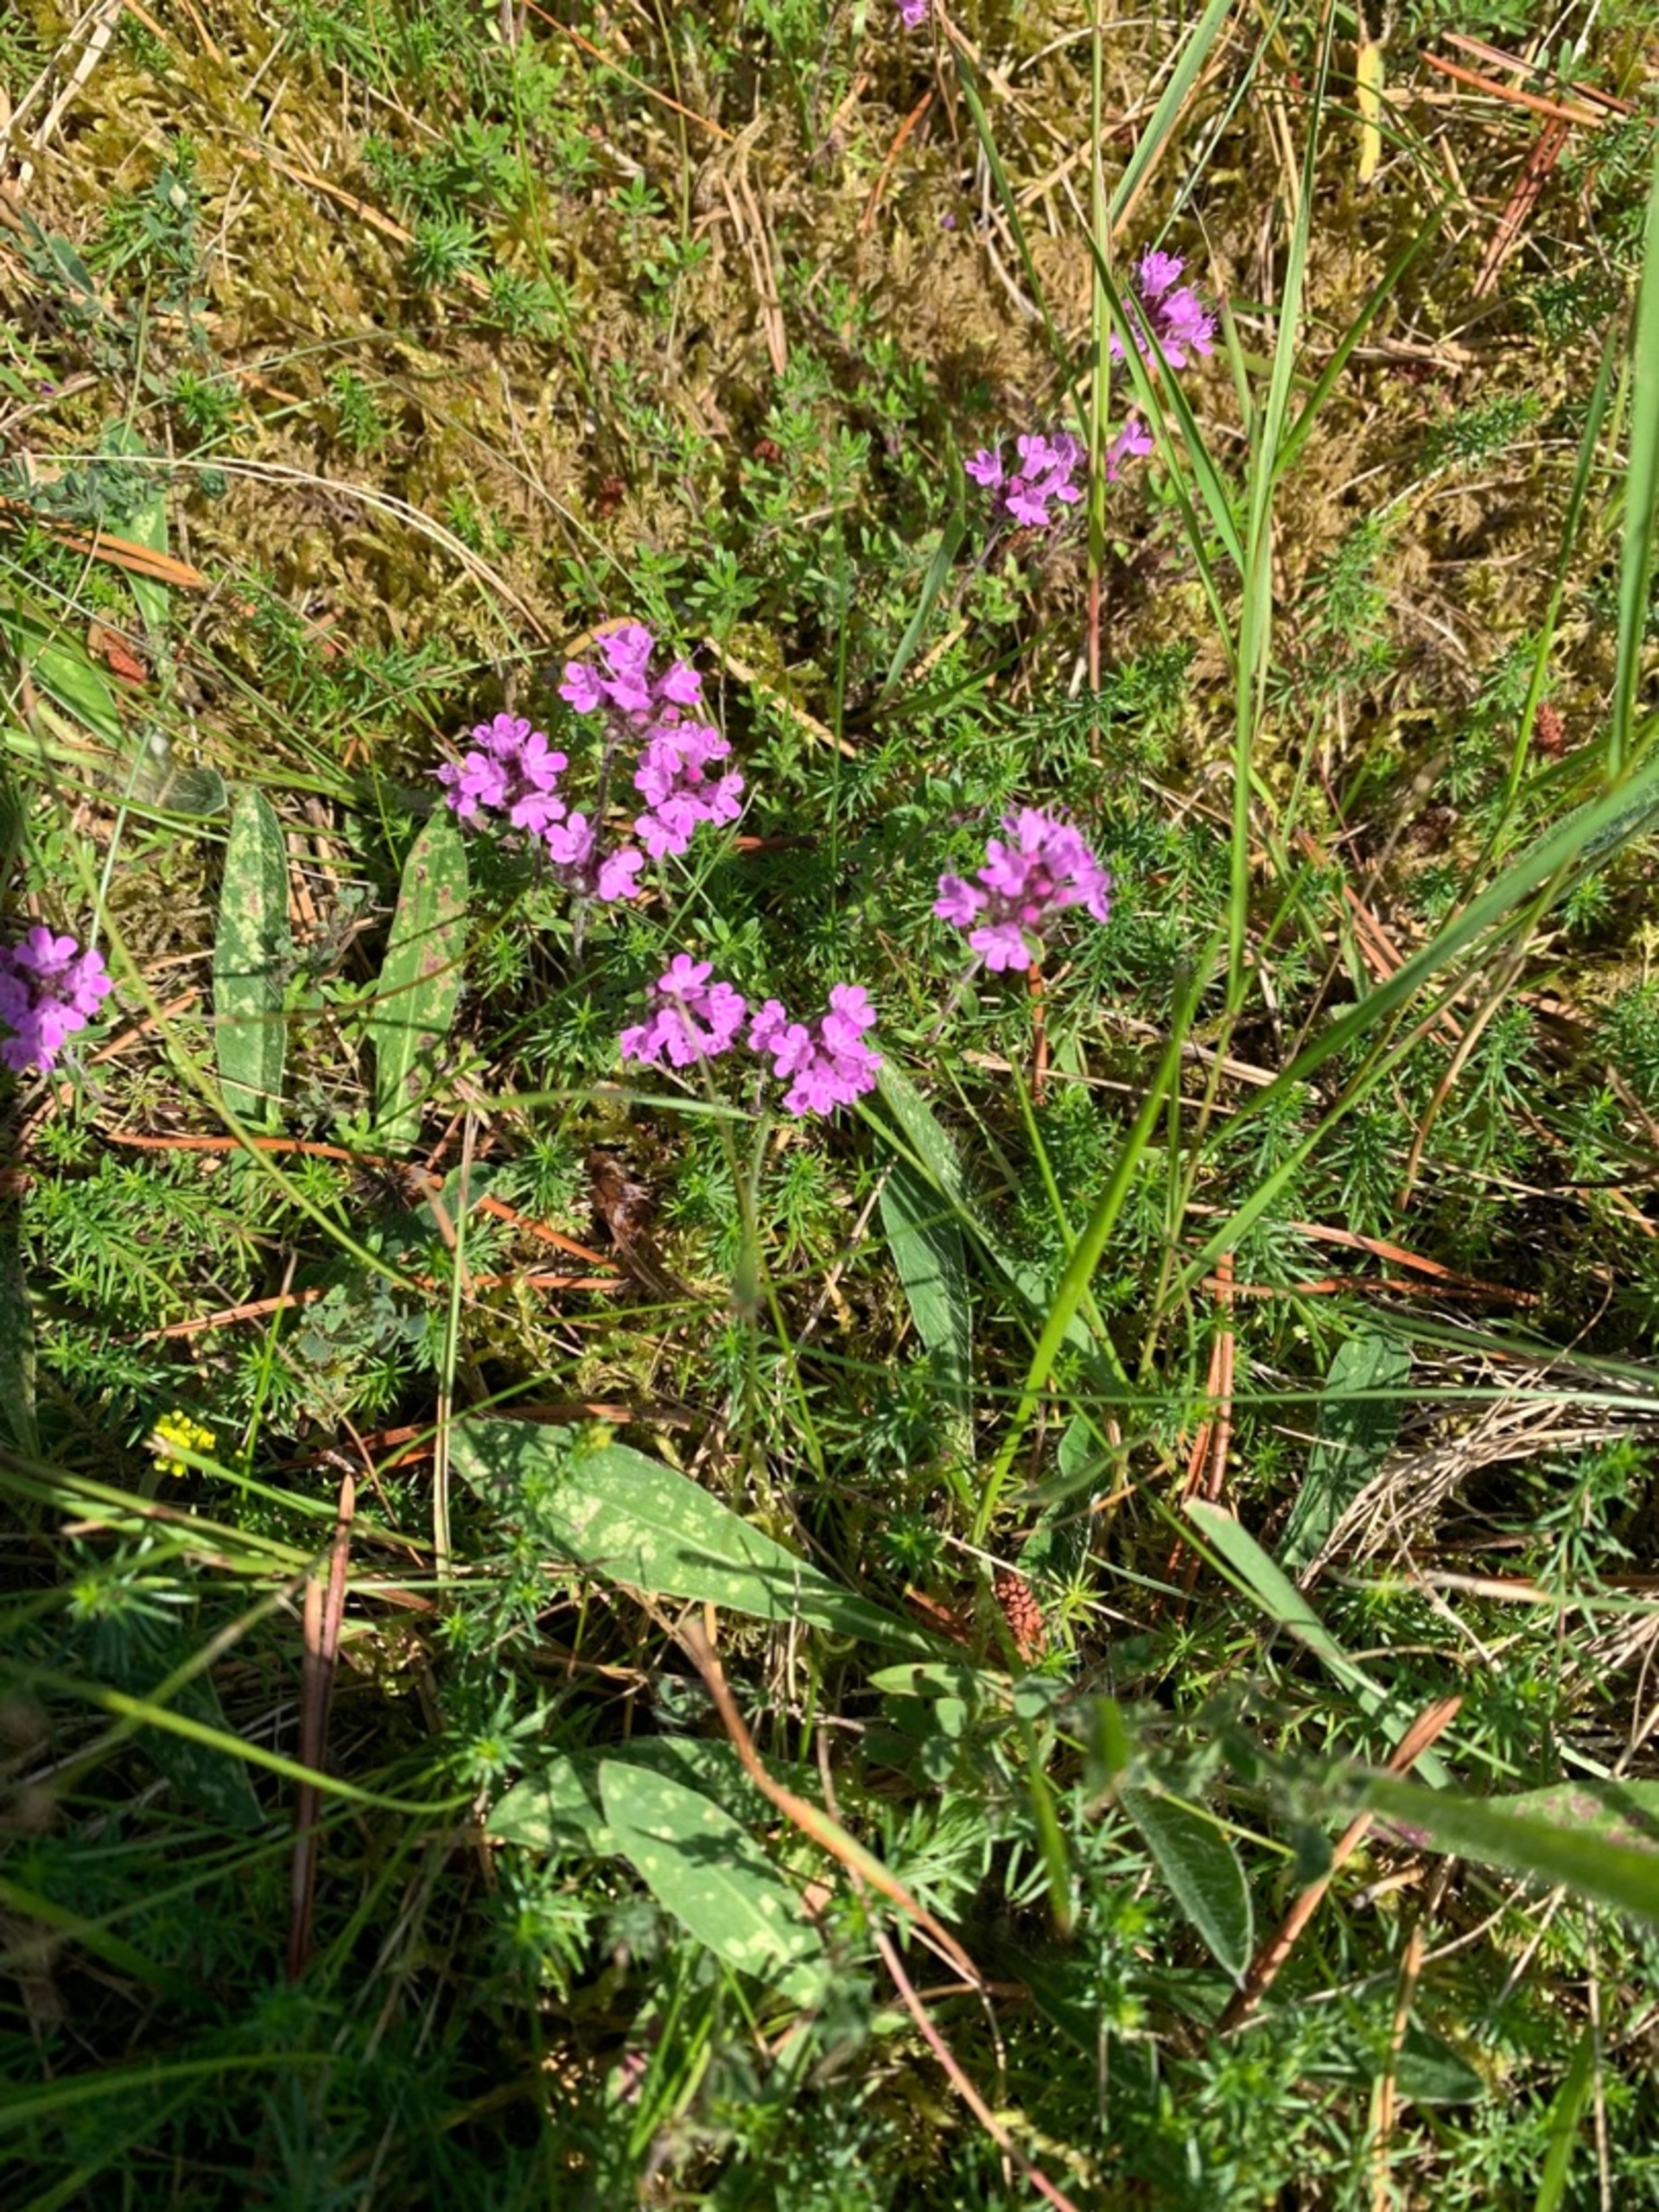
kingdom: Plantae
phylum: Tracheophyta
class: Magnoliopsida
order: Lamiales
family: Lamiaceae
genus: Thymus
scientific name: Thymus serpyllum
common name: Smalbladet timian
